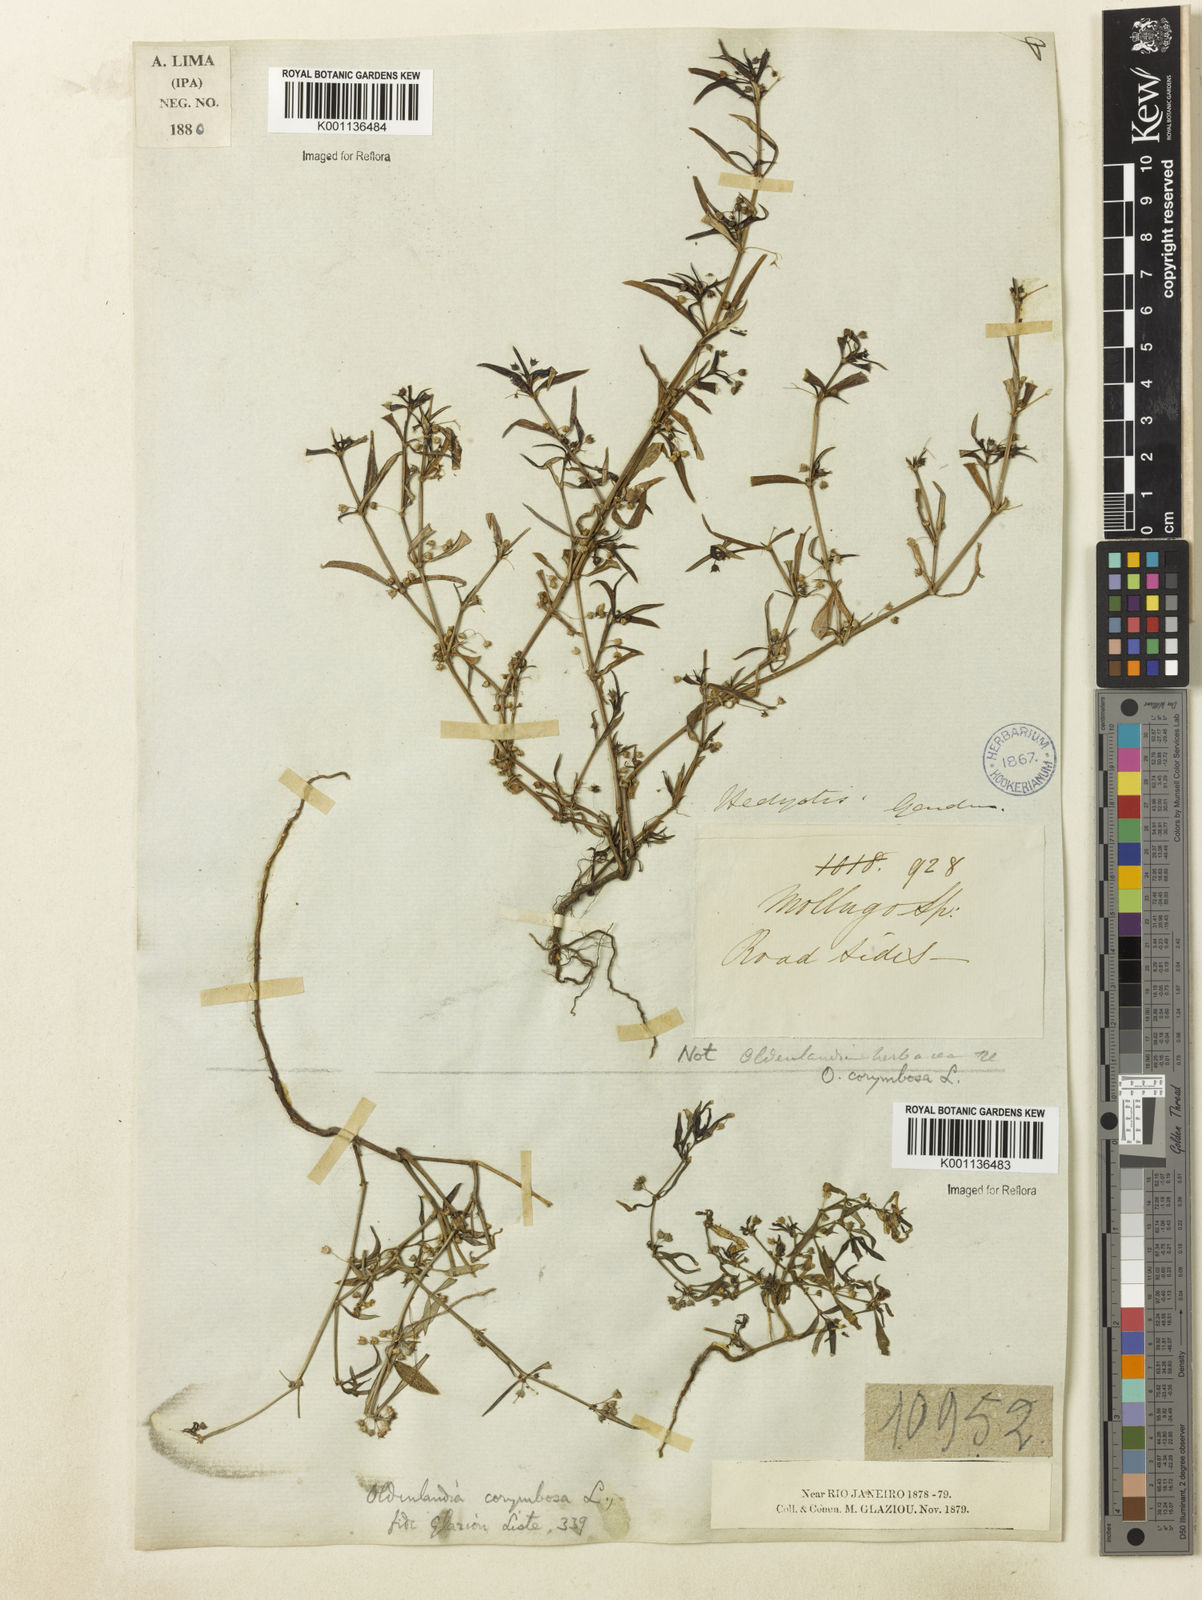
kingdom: Plantae
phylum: Tracheophyta
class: Magnoliopsida
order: Gentianales
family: Rubiaceae
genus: Oldenlandia
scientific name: Oldenlandia corymbosa
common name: Flat-top mille graines
